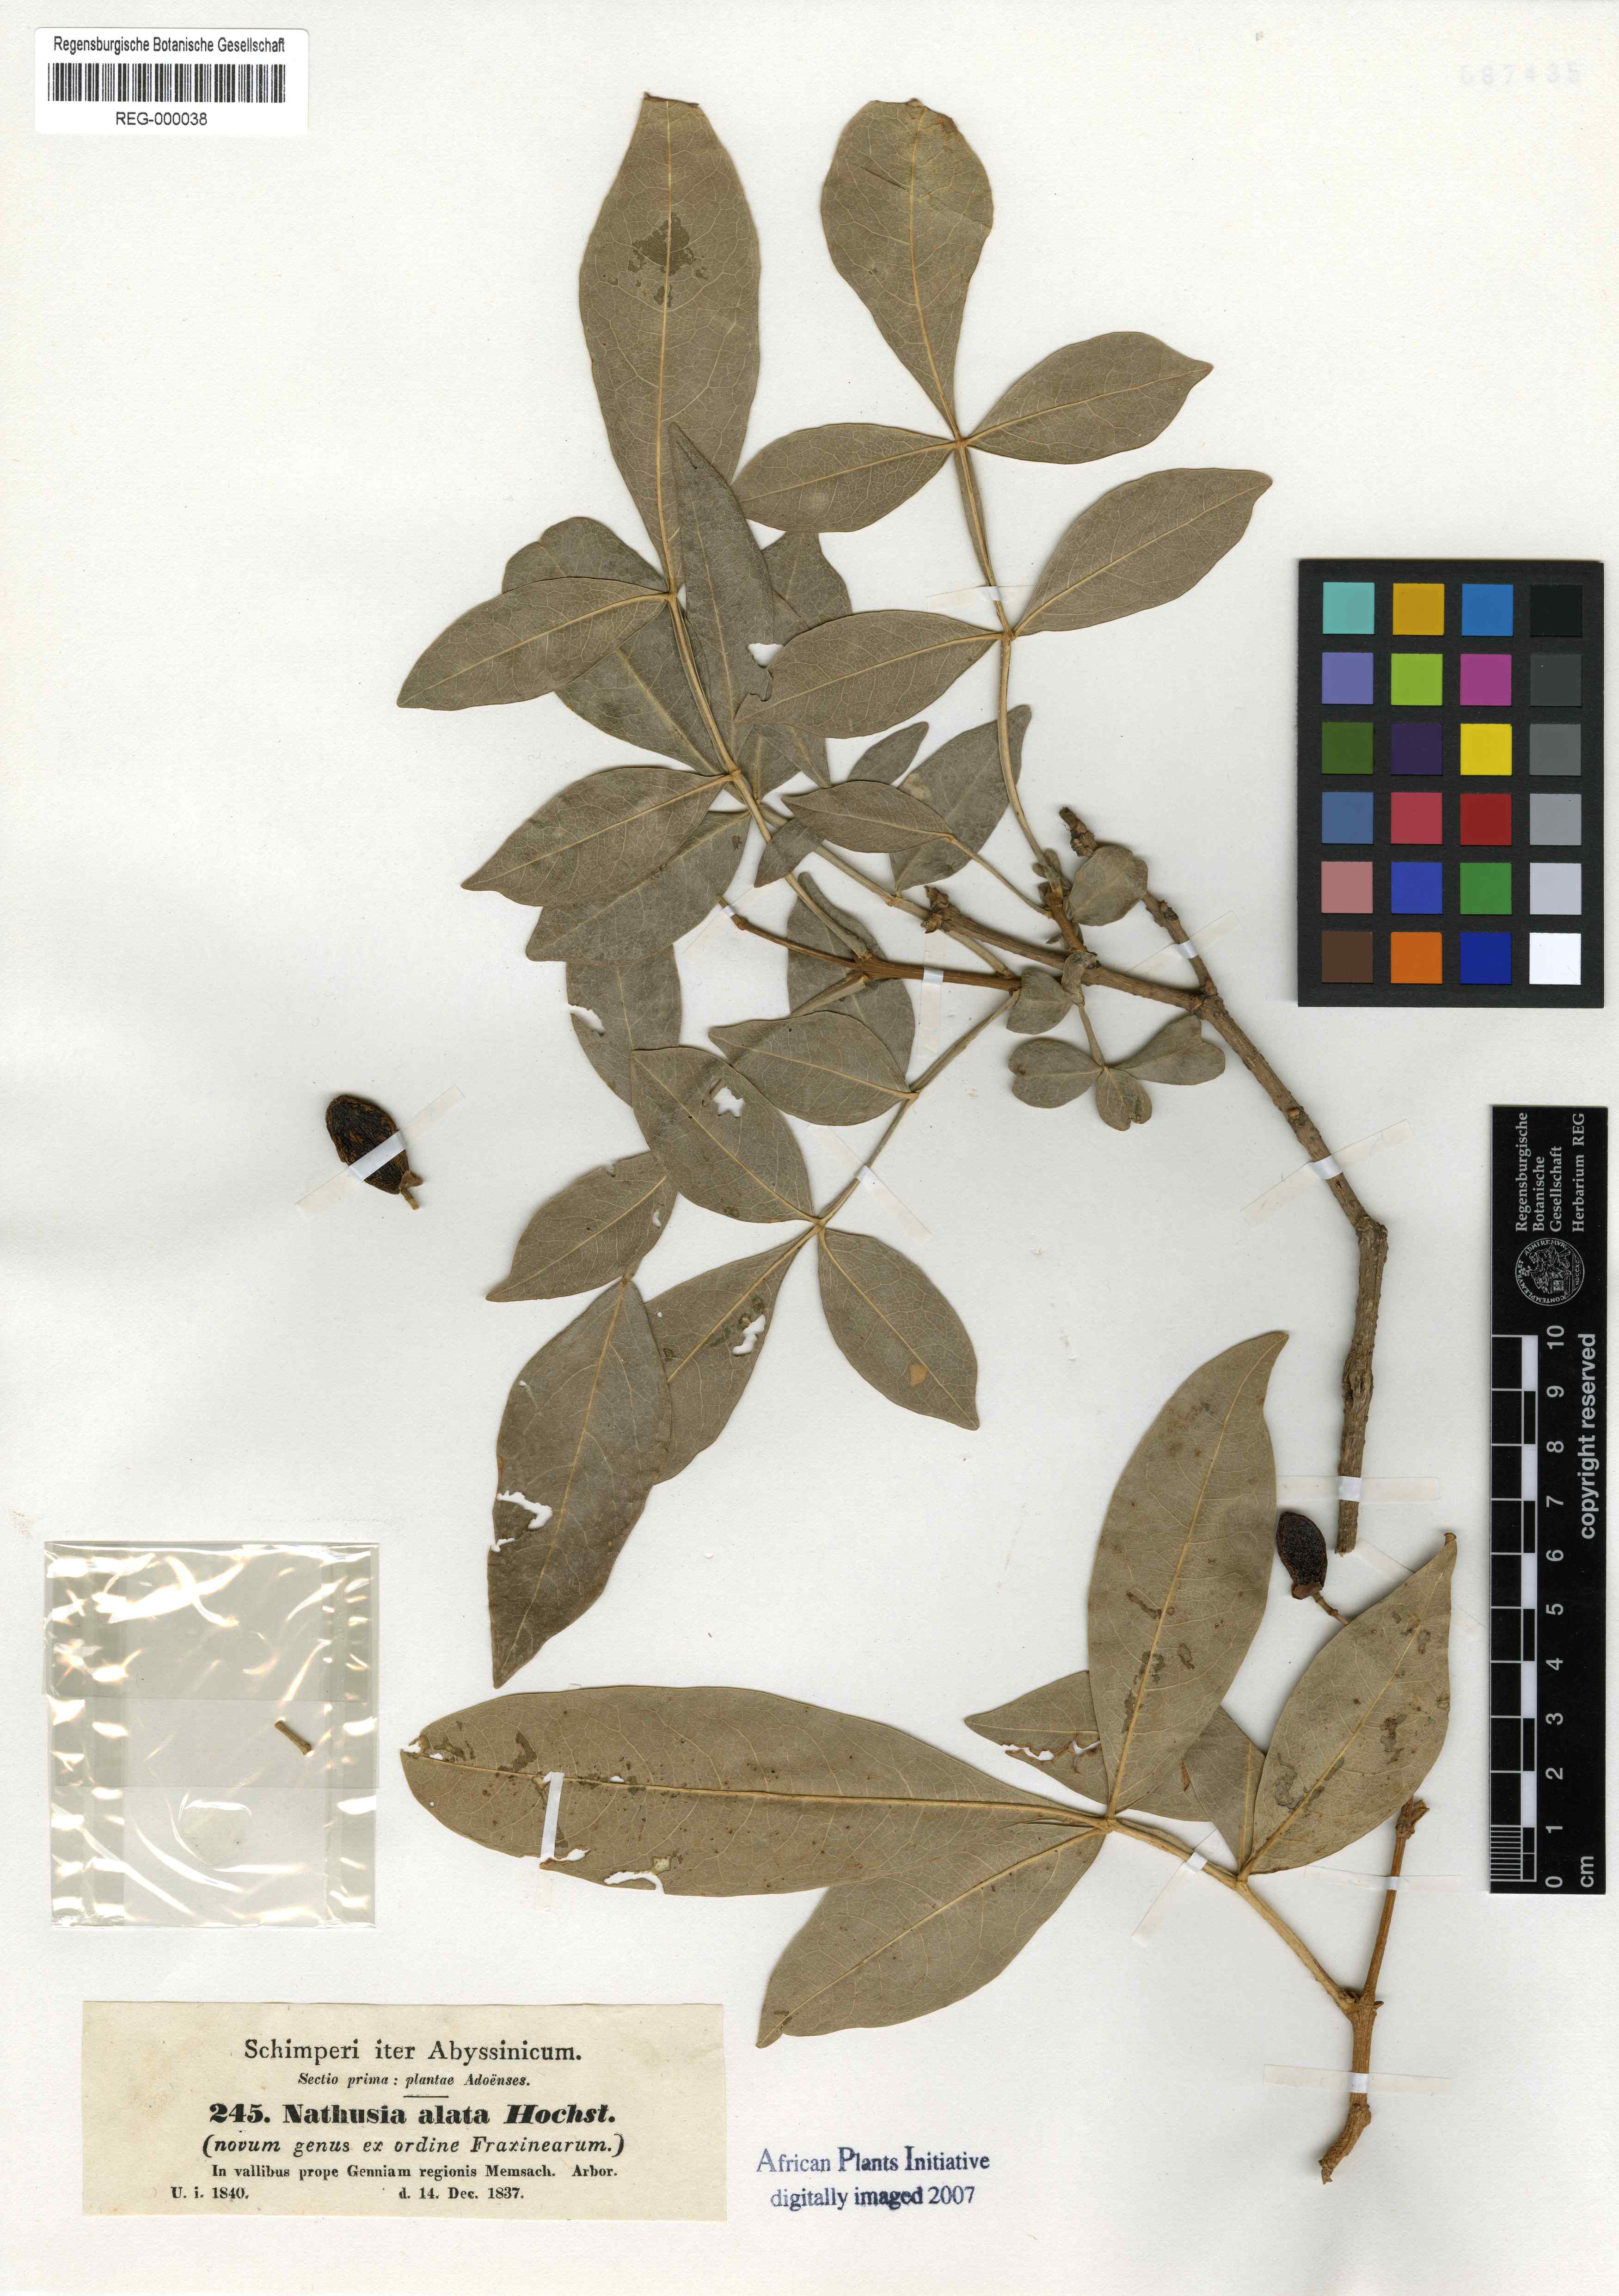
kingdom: Plantae
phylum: Tracheophyta
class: Magnoliopsida
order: Lamiales
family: Oleaceae
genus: Schrebera
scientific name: Schrebera alata
